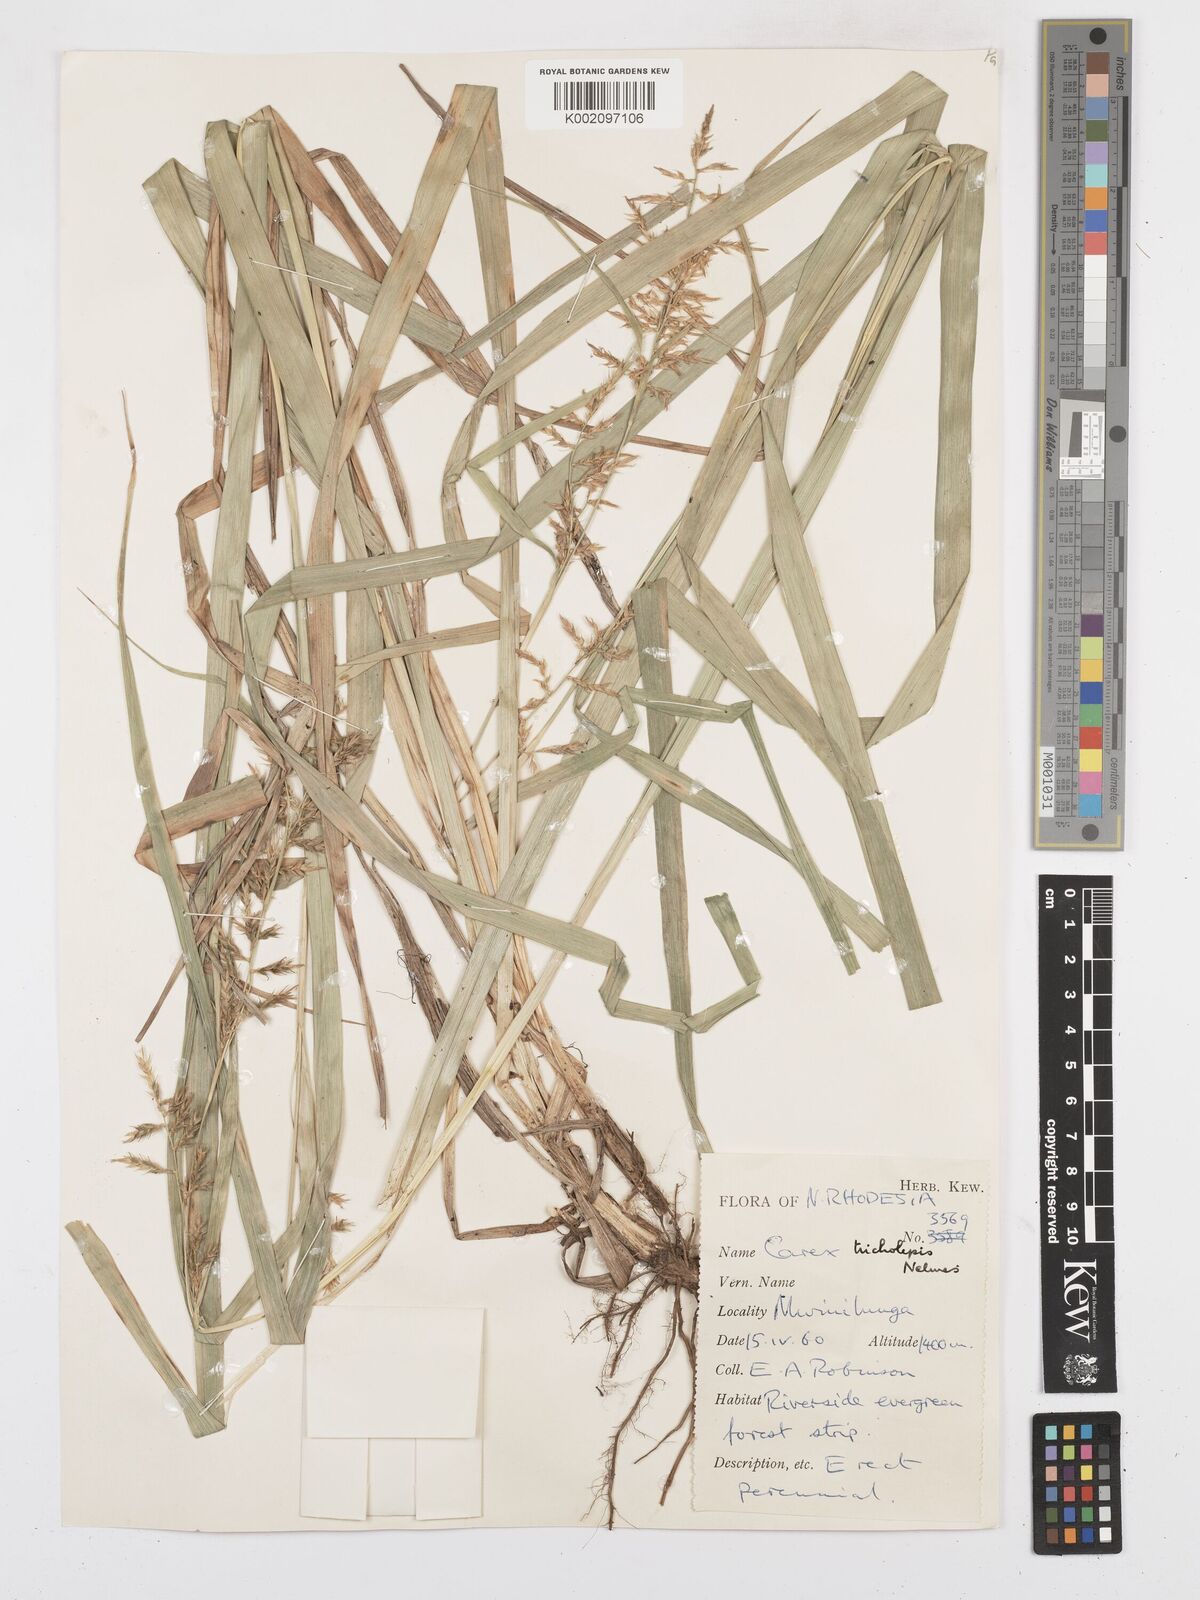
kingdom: Plantae
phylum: Tracheophyta
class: Liliopsida
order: Poales
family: Cyperaceae
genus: Carex
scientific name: Carex tricholepis
